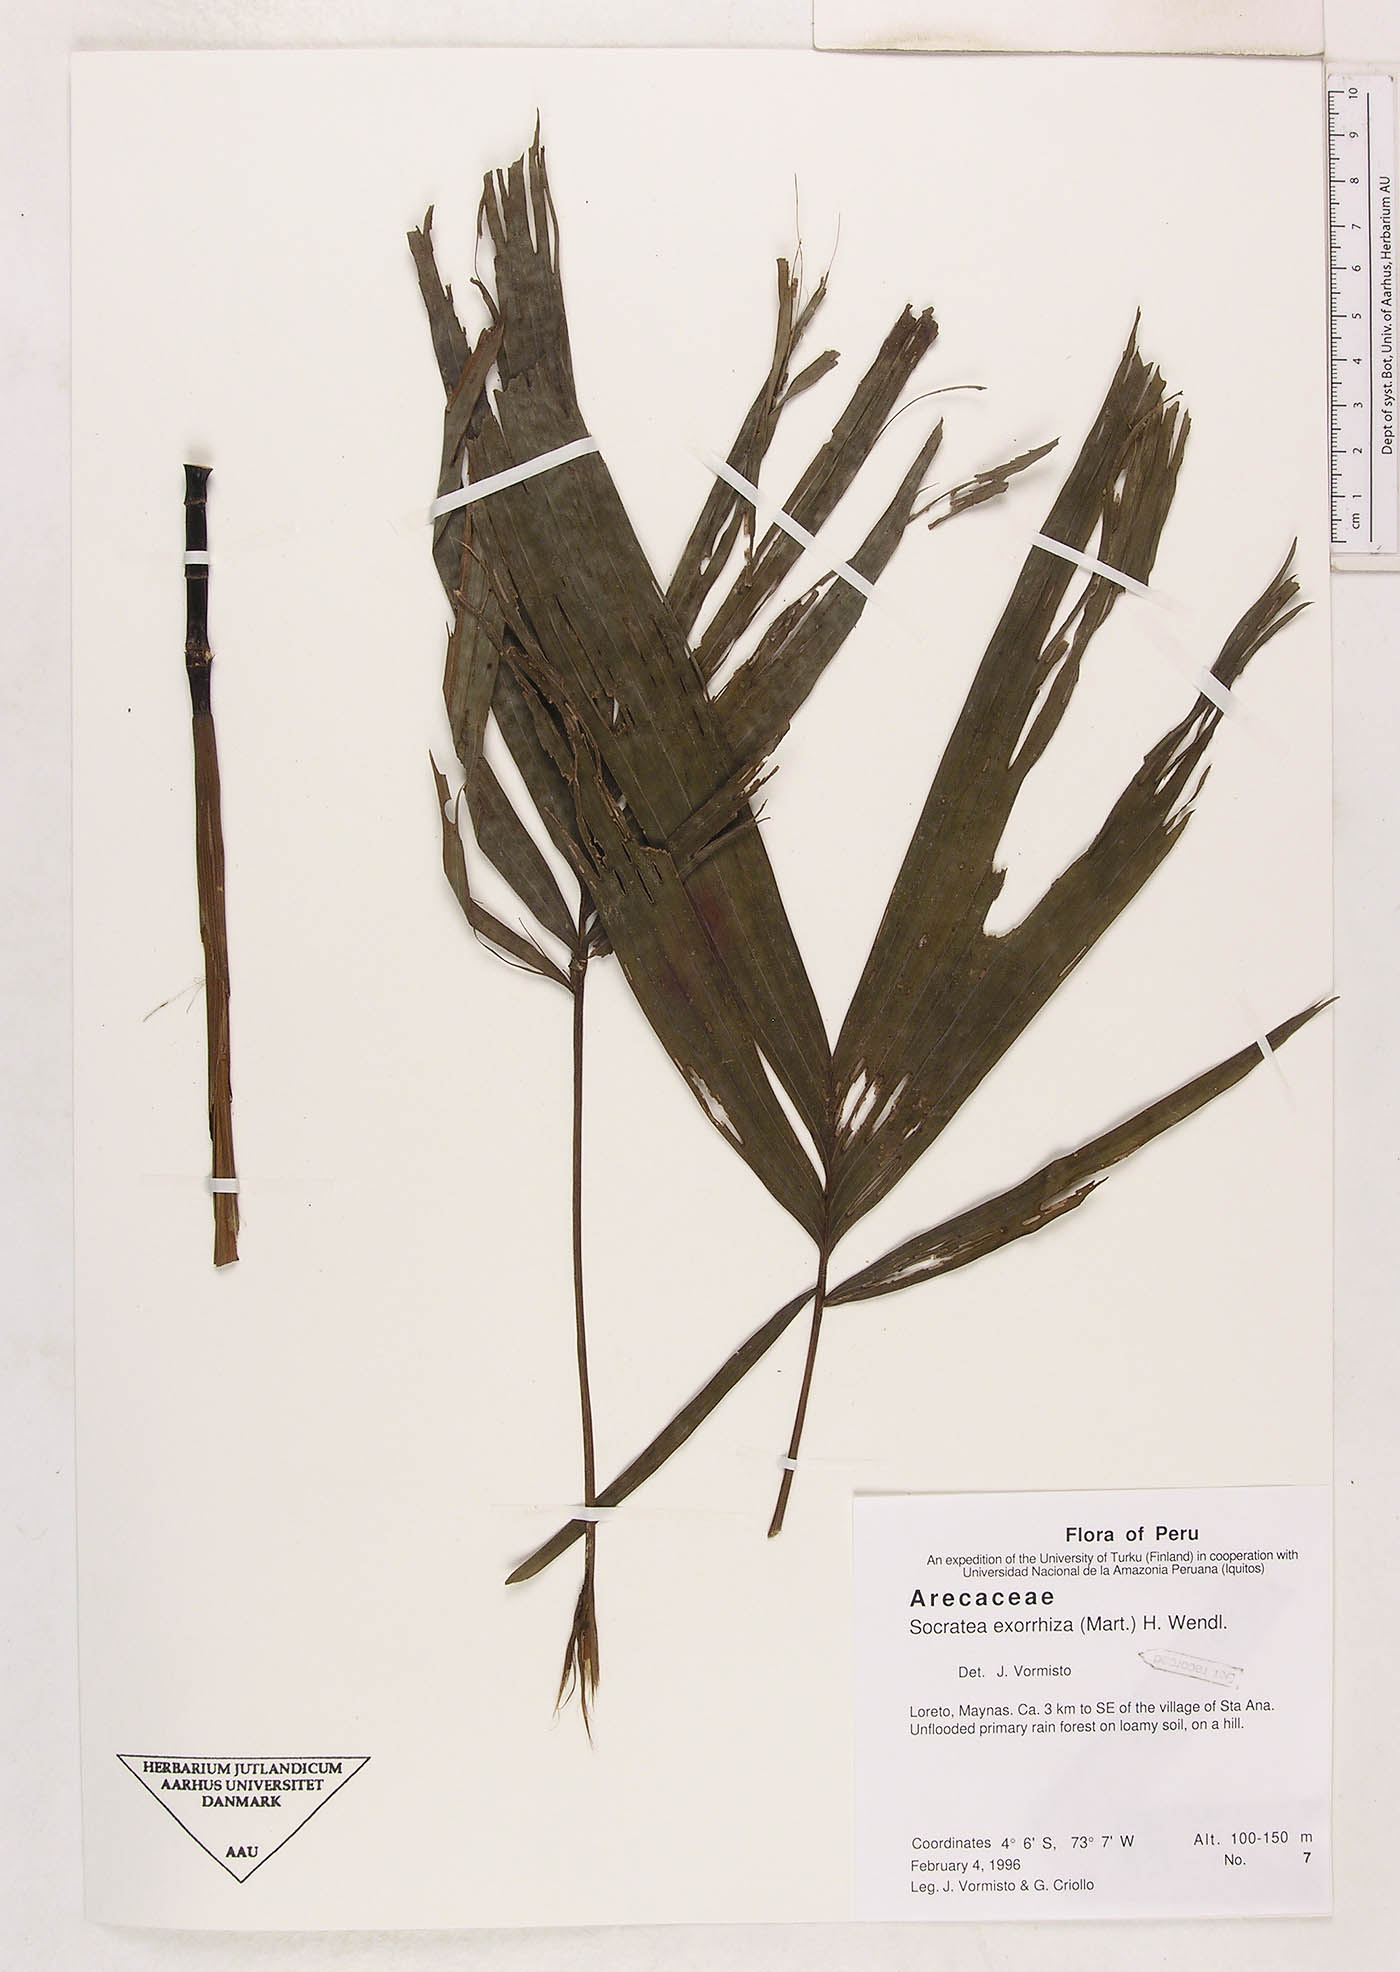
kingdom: Plantae
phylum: Tracheophyta
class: Liliopsida
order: Arecales
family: Arecaceae
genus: Socratea
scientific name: Socratea exorrhiza
